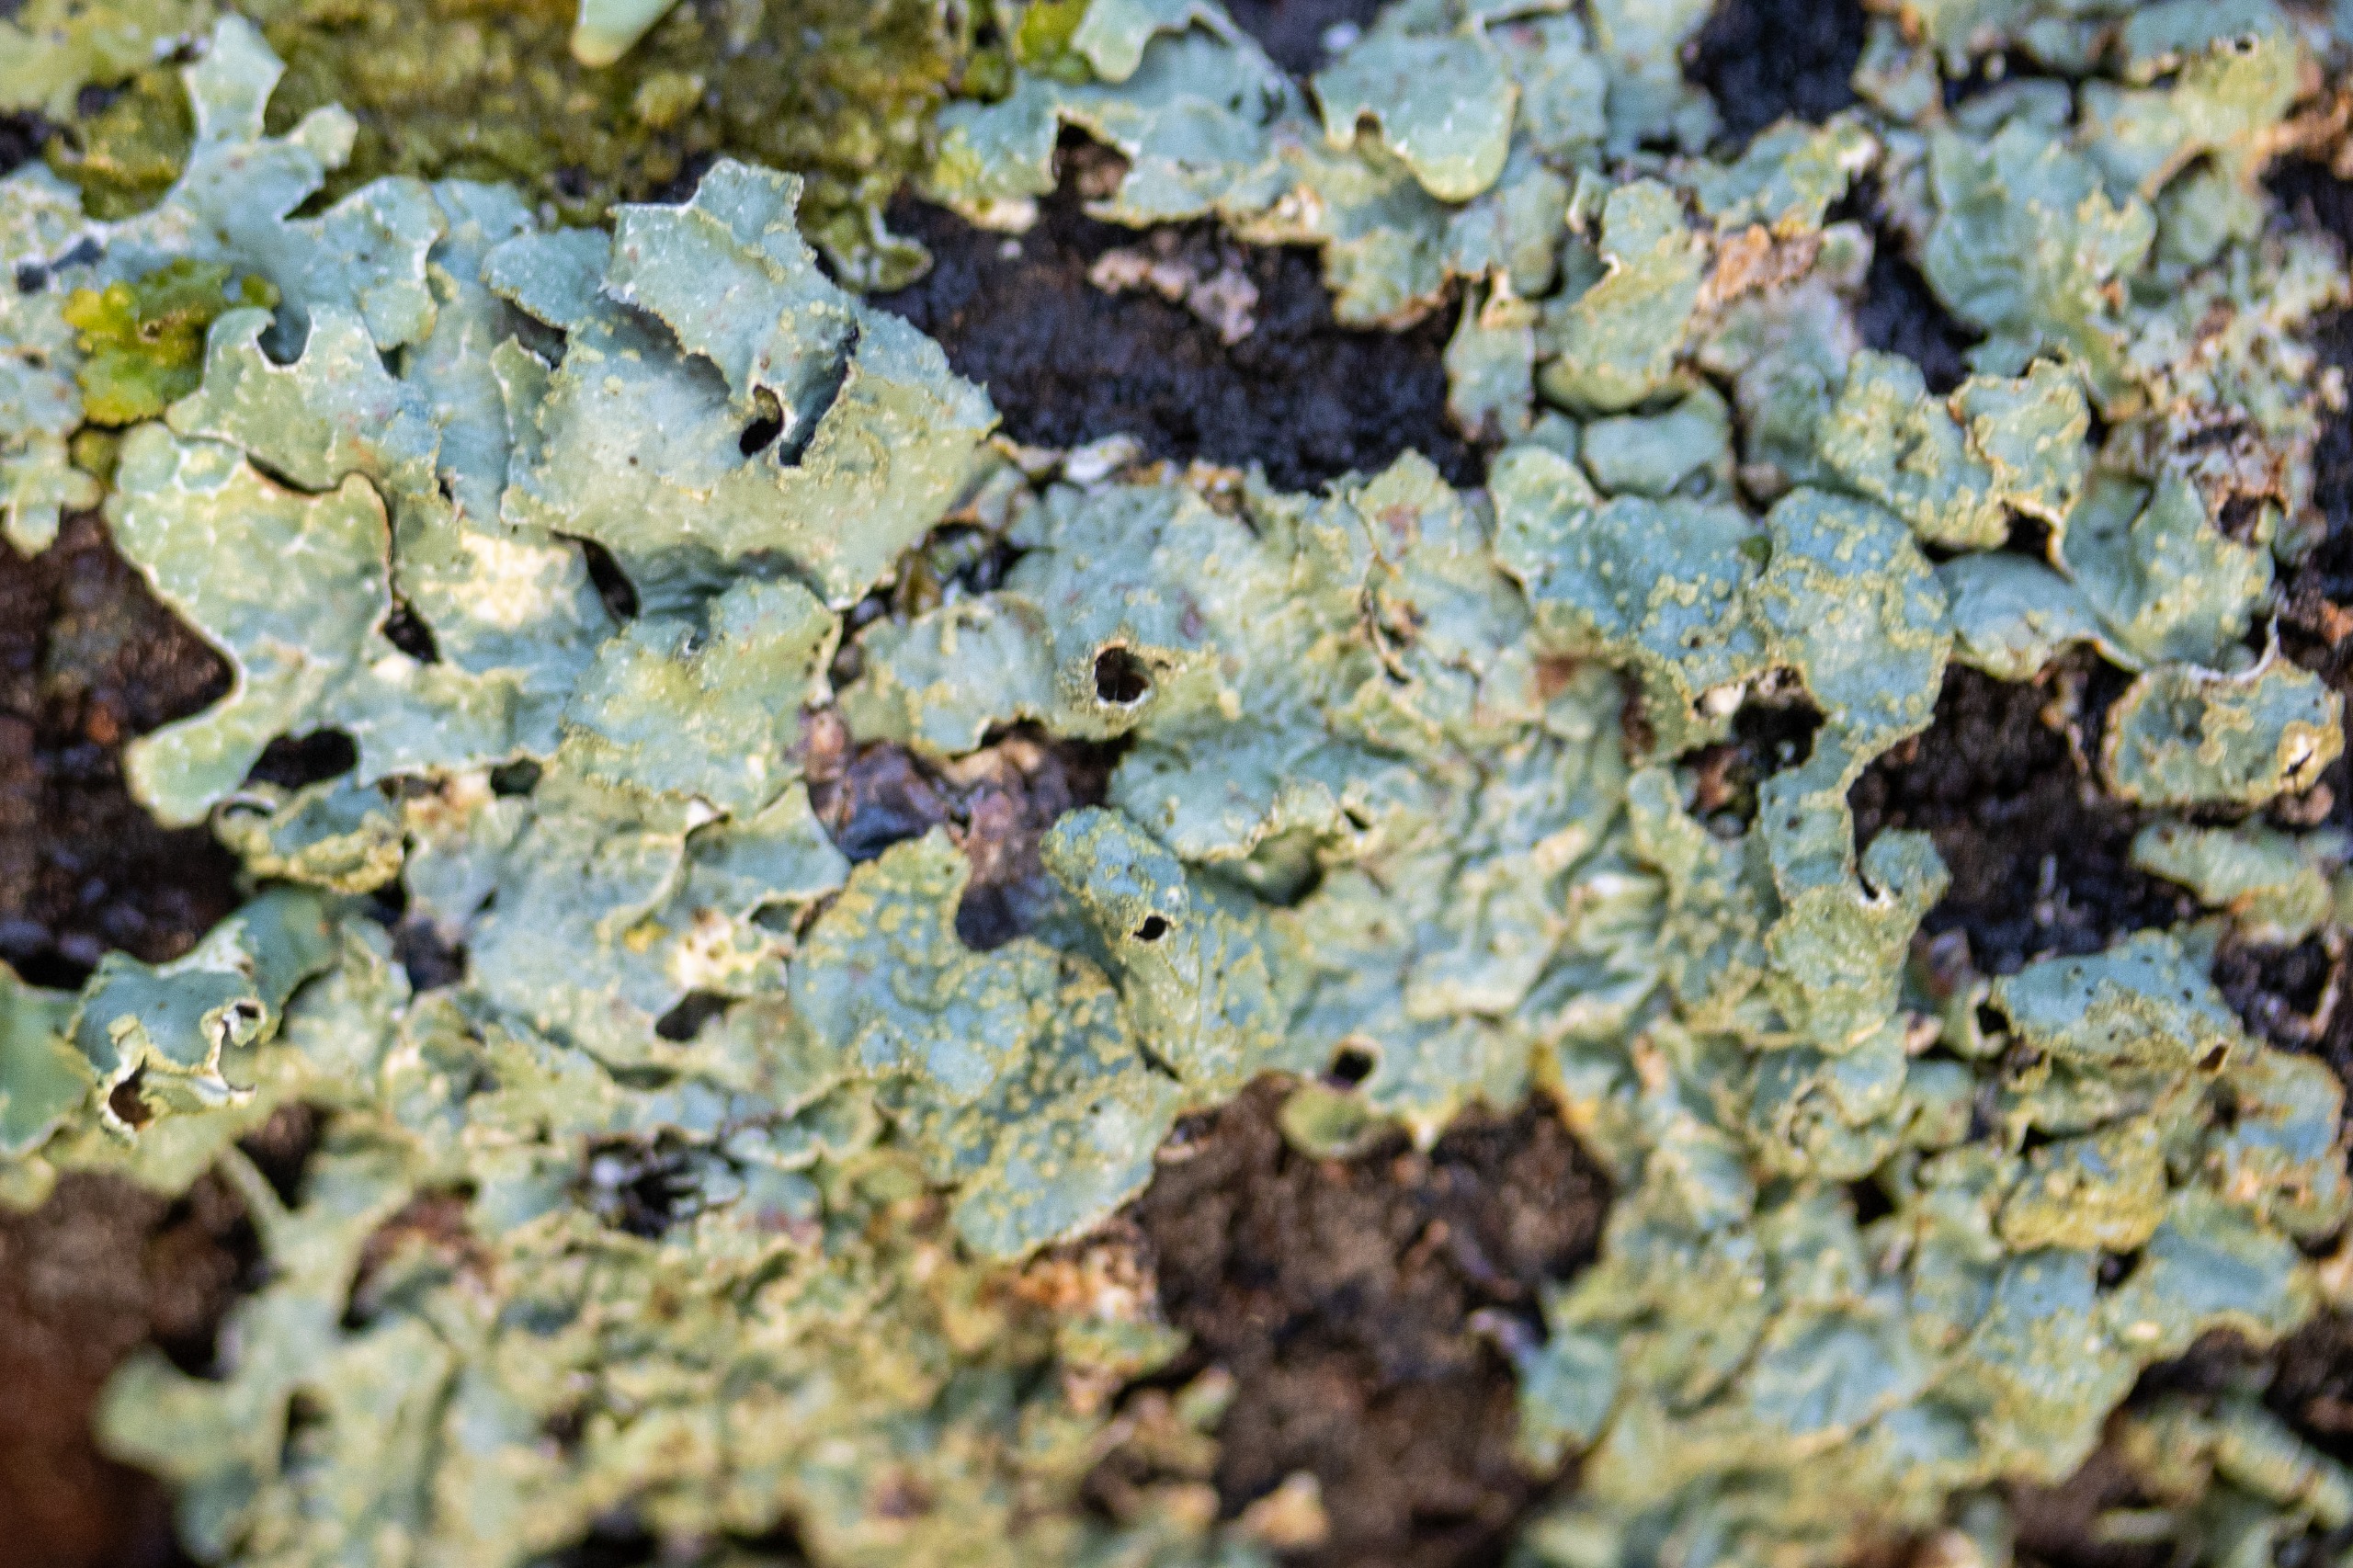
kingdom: Fungi
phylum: Ascomycota
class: Lecanoromycetes
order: Lecanorales
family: Parmeliaceae
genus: Parmelia
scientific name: Parmelia sulcata
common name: Rynket skållav
